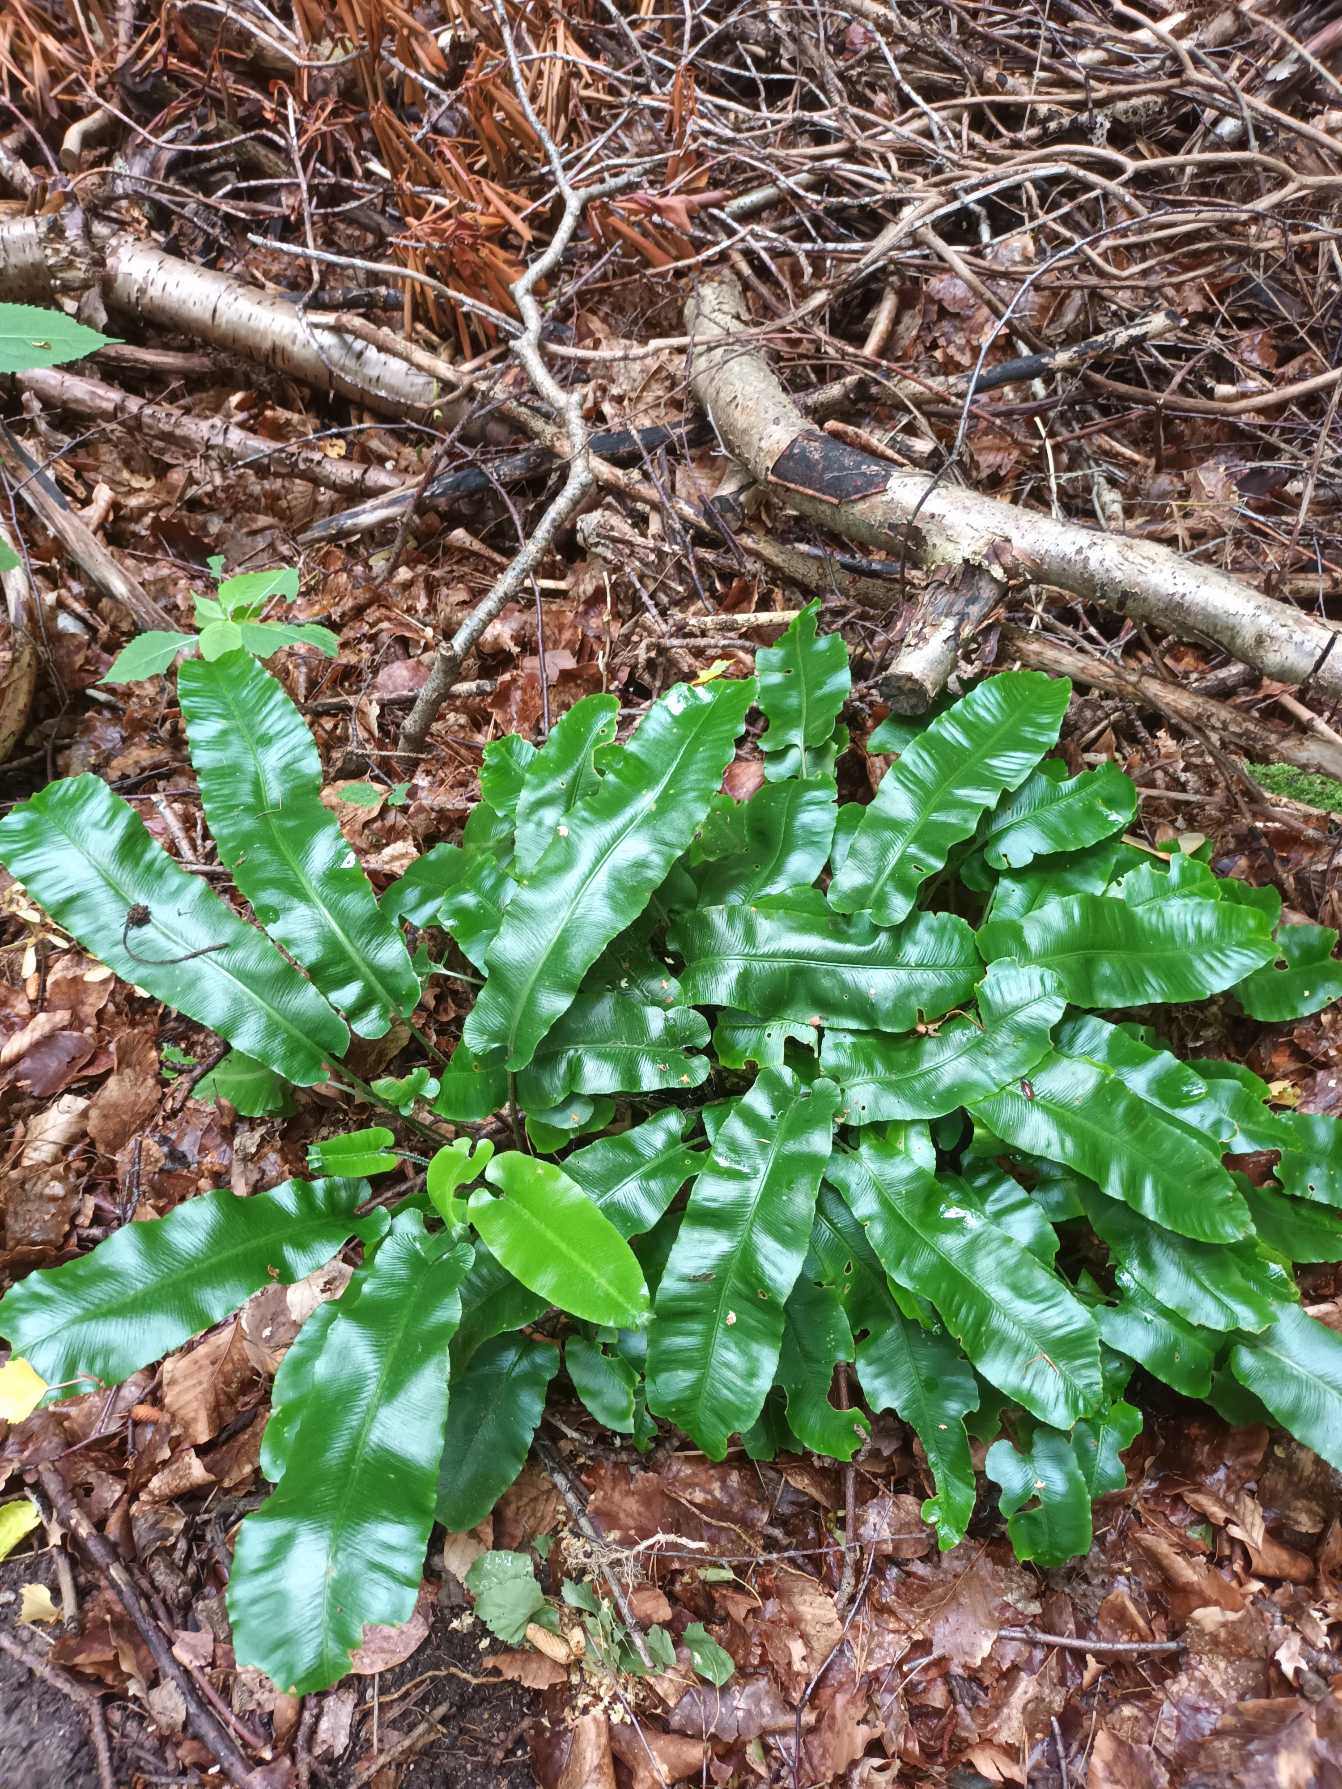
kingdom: Plantae
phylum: Tracheophyta
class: Polypodiopsida
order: Polypodiales
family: Aspleniaceae
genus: Asplenium
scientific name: Asplenium scolopendrium
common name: Hjortetunge
